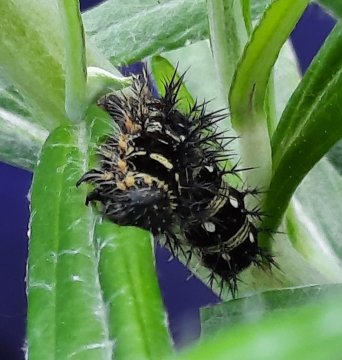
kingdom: Animalia
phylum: Arthropoda
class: Insecta
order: Lepidoptera
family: Nymphalidae
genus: Vanessa
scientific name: Vanessa virginiensis
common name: American Lady
